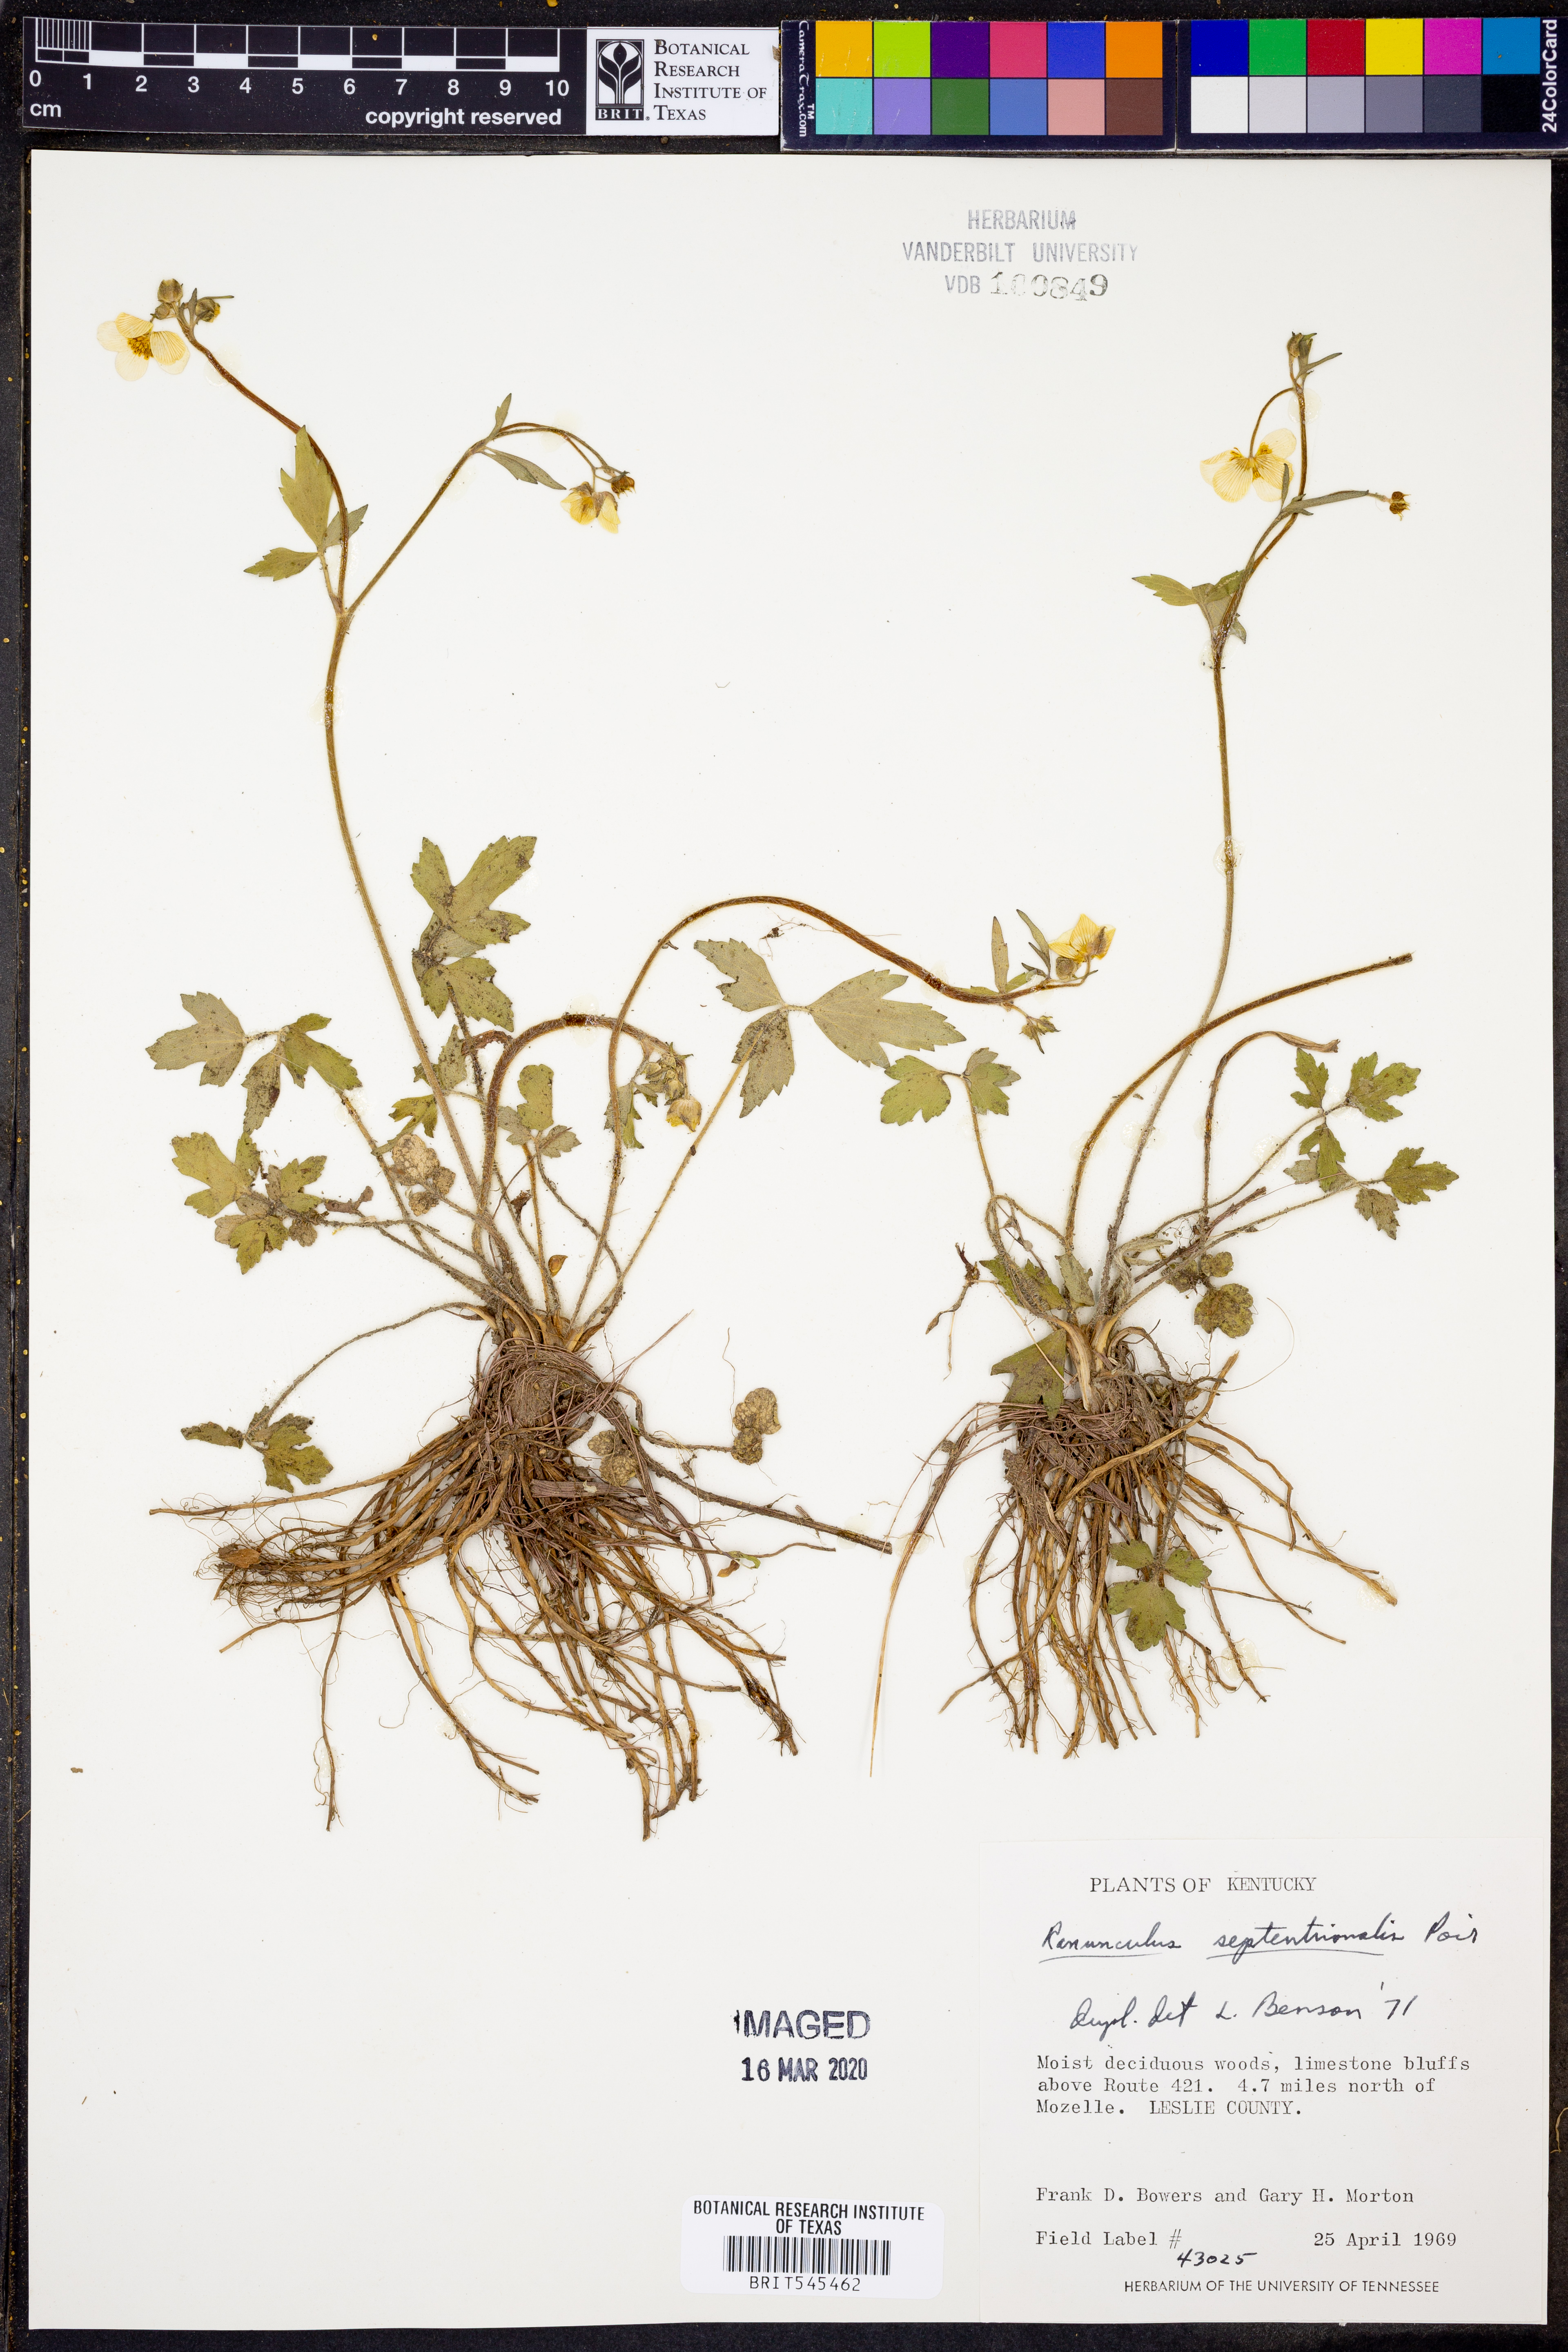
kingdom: Plantae
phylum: Tracheophyta
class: Magnoliopsida
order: Ranunculales
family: Ranunculaceae
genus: Ranunculus
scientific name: Ranunculus hispidus
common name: Bristly buttercup
